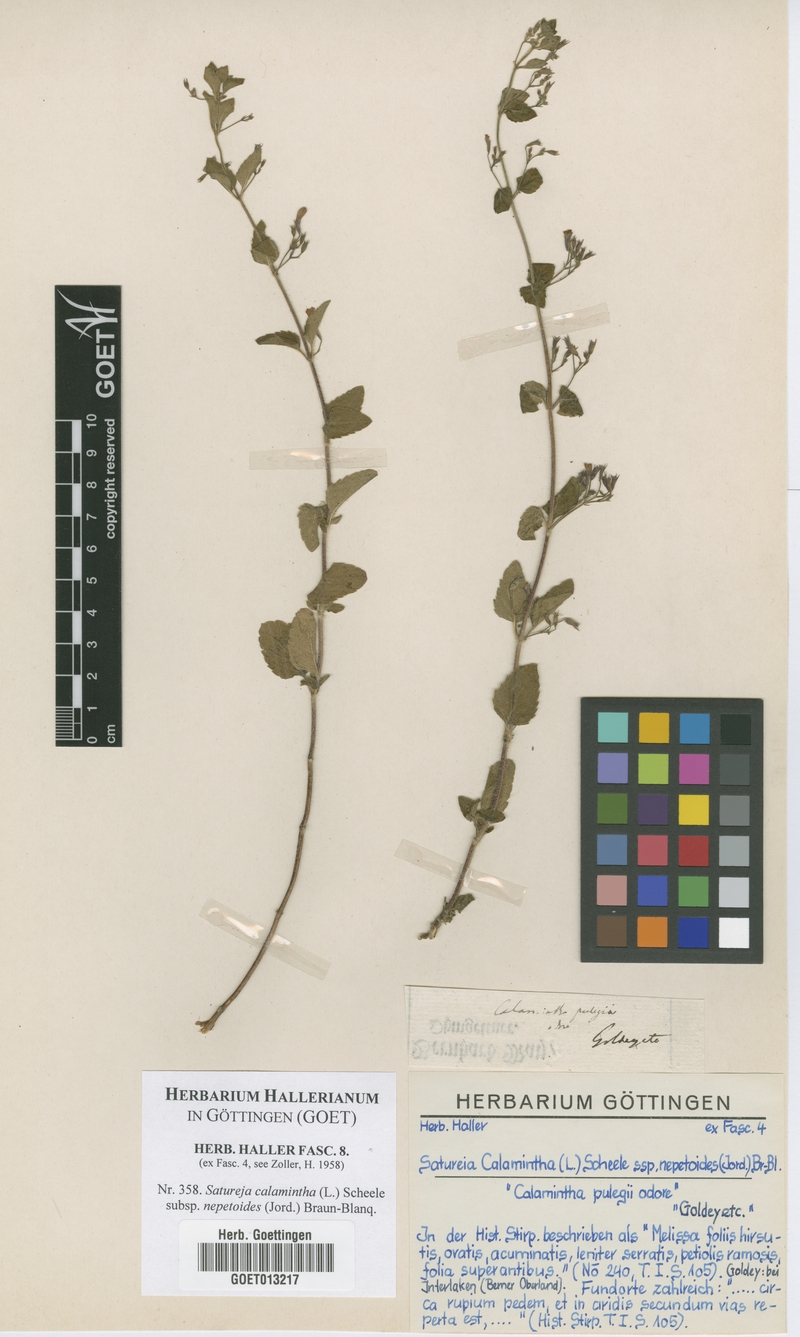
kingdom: Plantae
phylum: Tracheophyta
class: Magnoliopsida
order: Lamiales
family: Lamiaceae
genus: Clinopodium
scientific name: Clinopodium nepeta
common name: Lesser calamint
